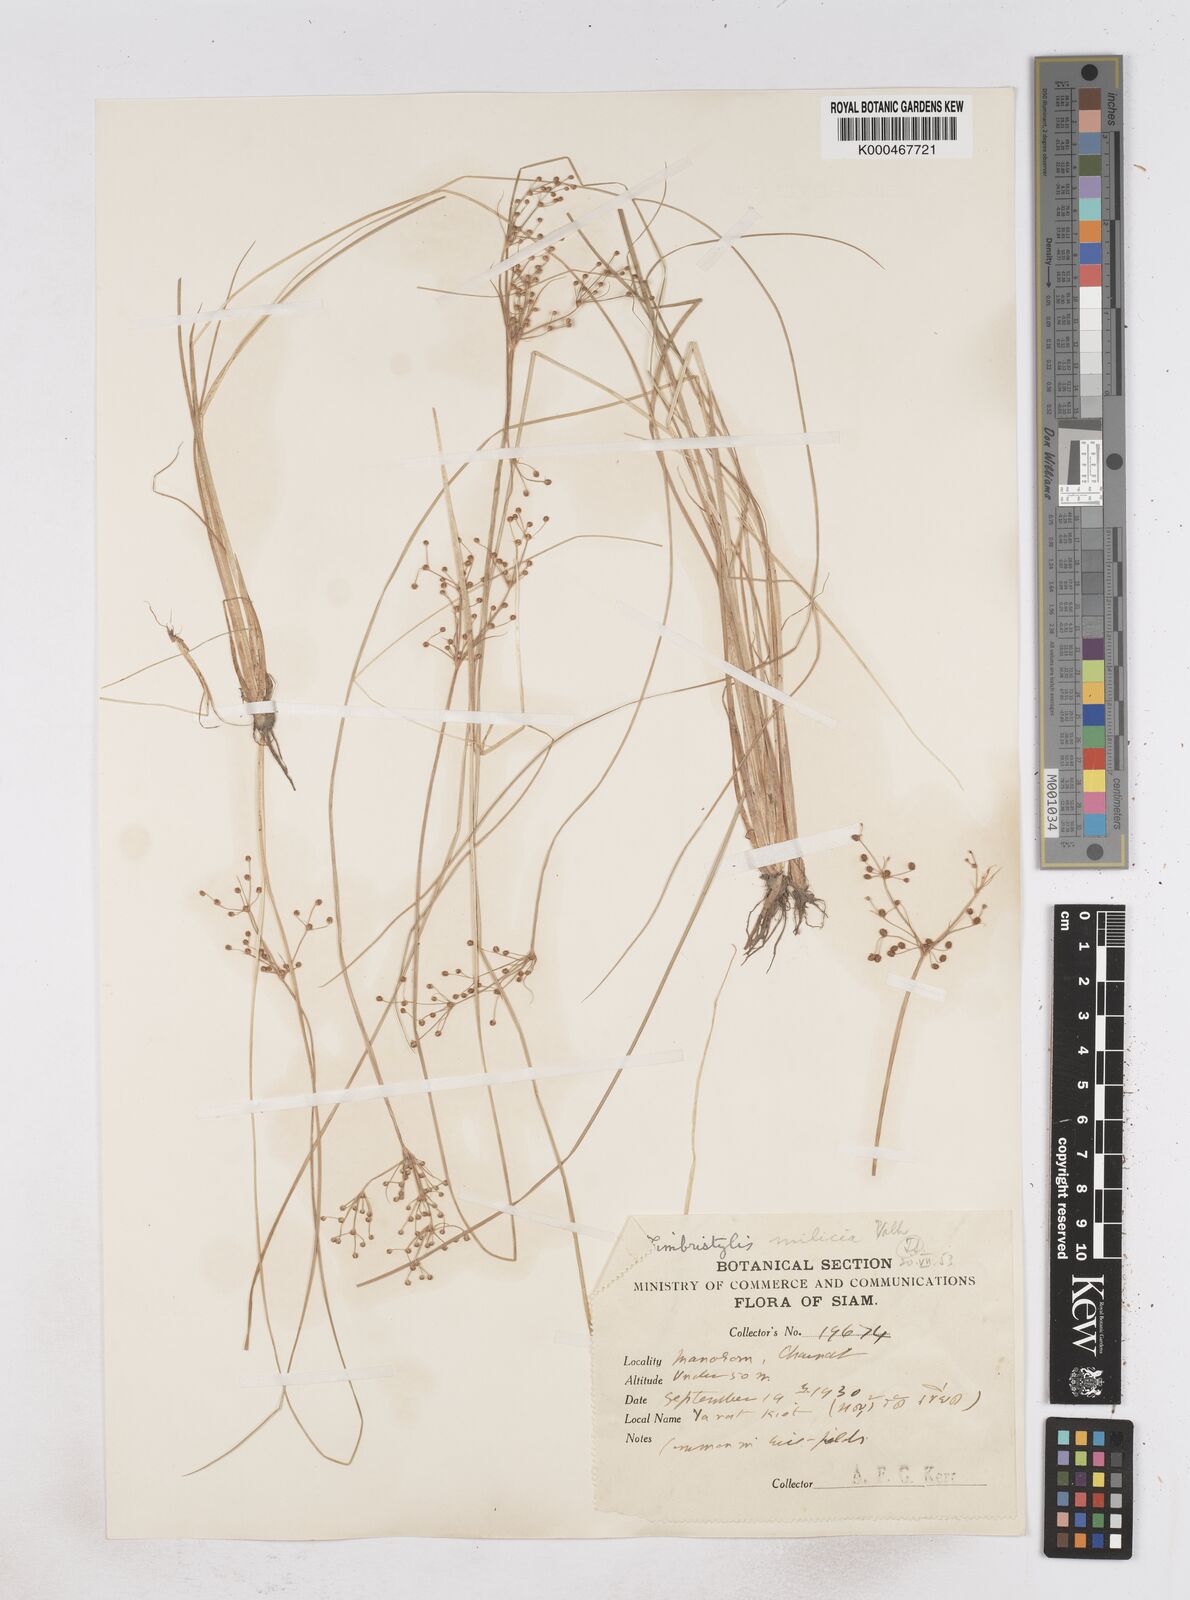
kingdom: Plantae
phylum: Tracheophyta
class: Liliopsida
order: Poales
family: Cyperaceae
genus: Fimbristylis
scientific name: Fimbristylis quinquangularis
